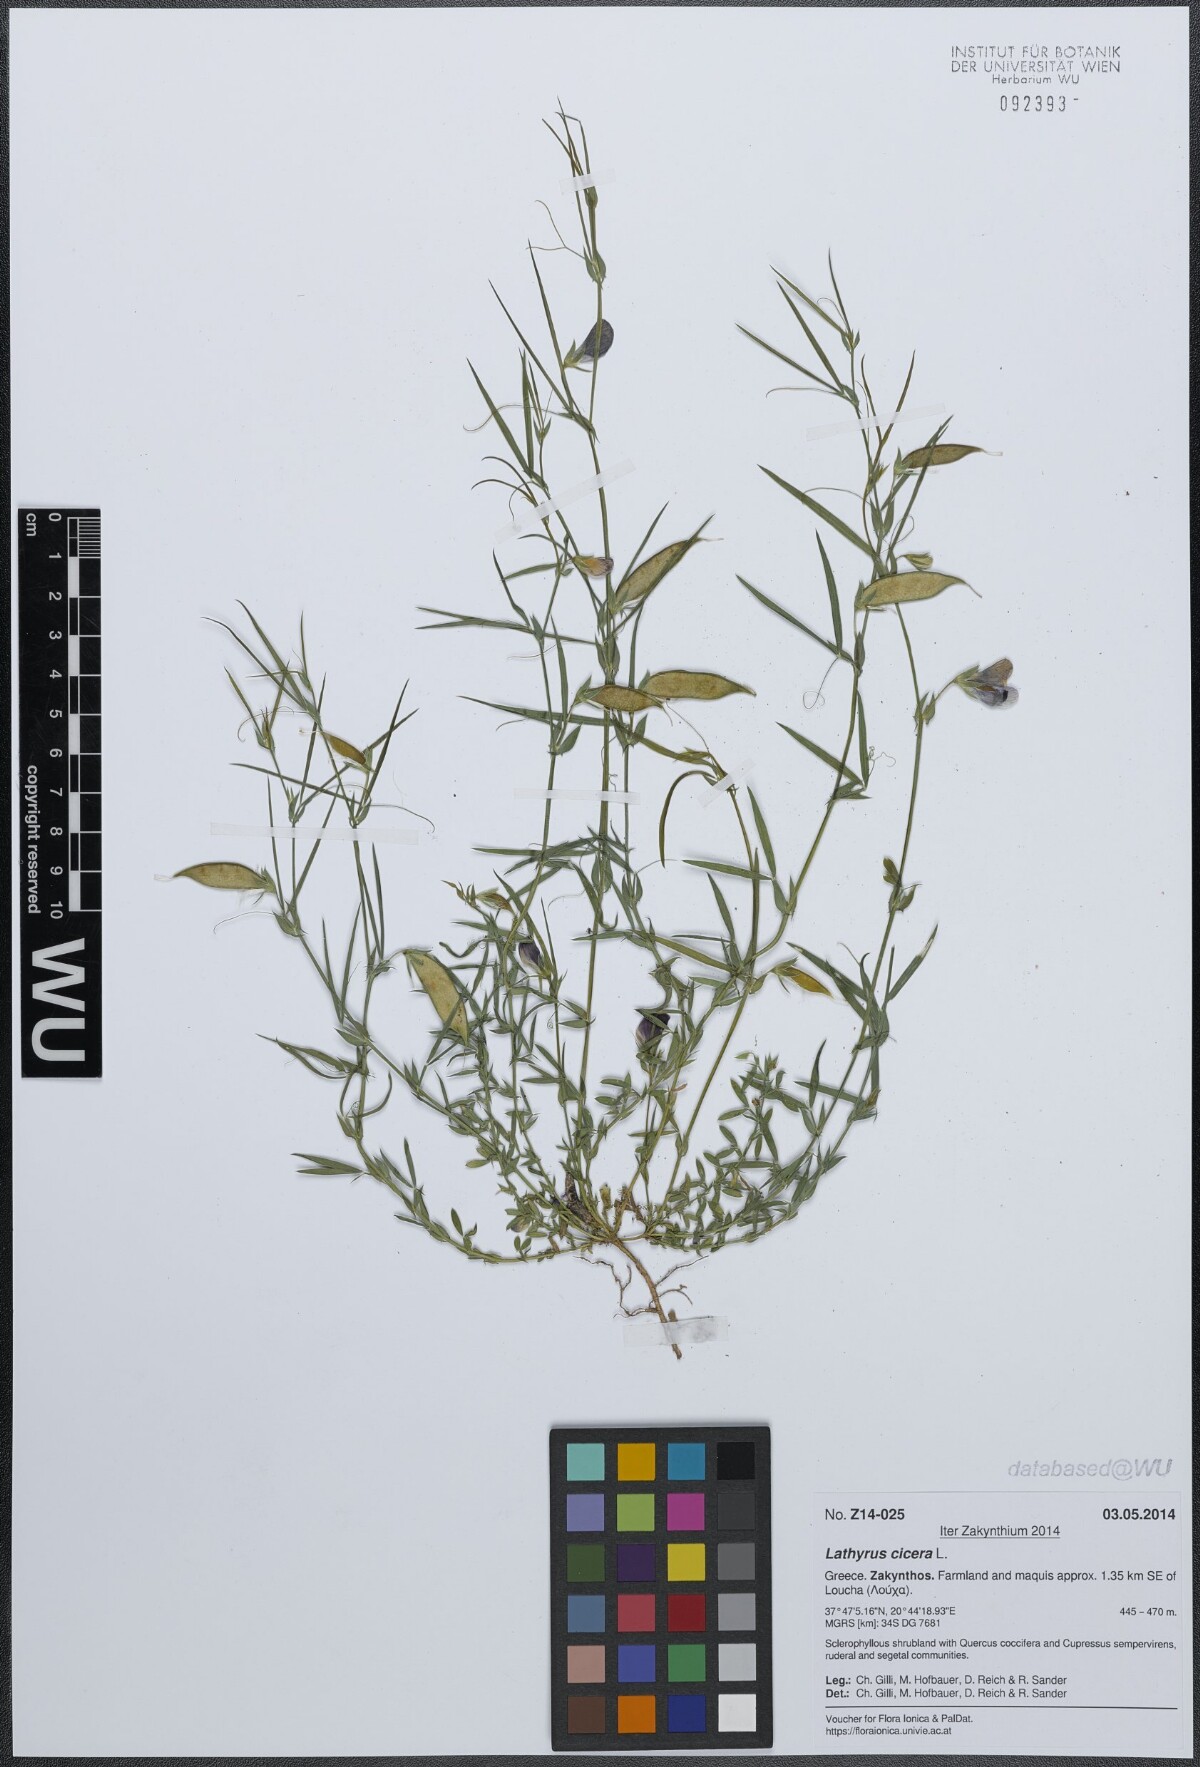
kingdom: Plantae
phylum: Tracheophyta
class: Magnoliopsida
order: Fabales
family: Fabaceae
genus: Lathyrus
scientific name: Lathyrus cicera
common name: Red vetchling
